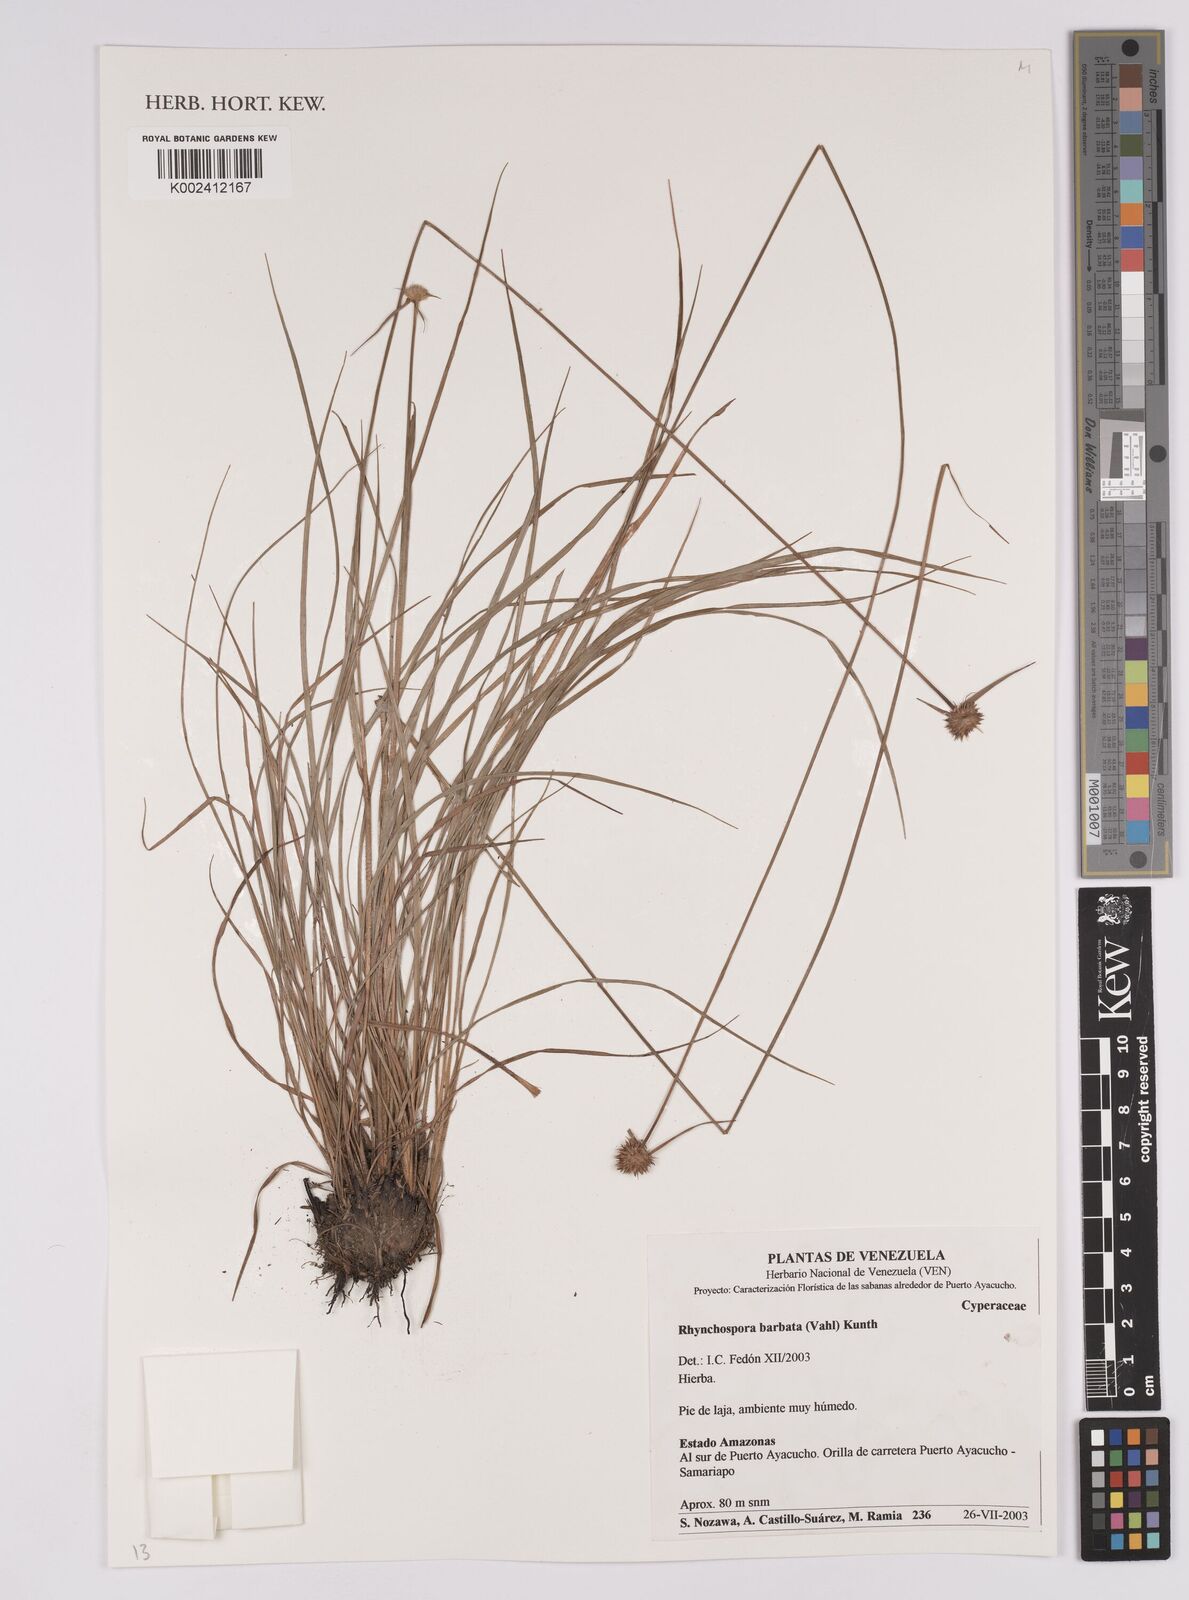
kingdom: Plantae
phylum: Tracheophyta
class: Liliopsida
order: Poales
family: Cyperaceae
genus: Rhynchospora
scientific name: Rhynchospora barbata
